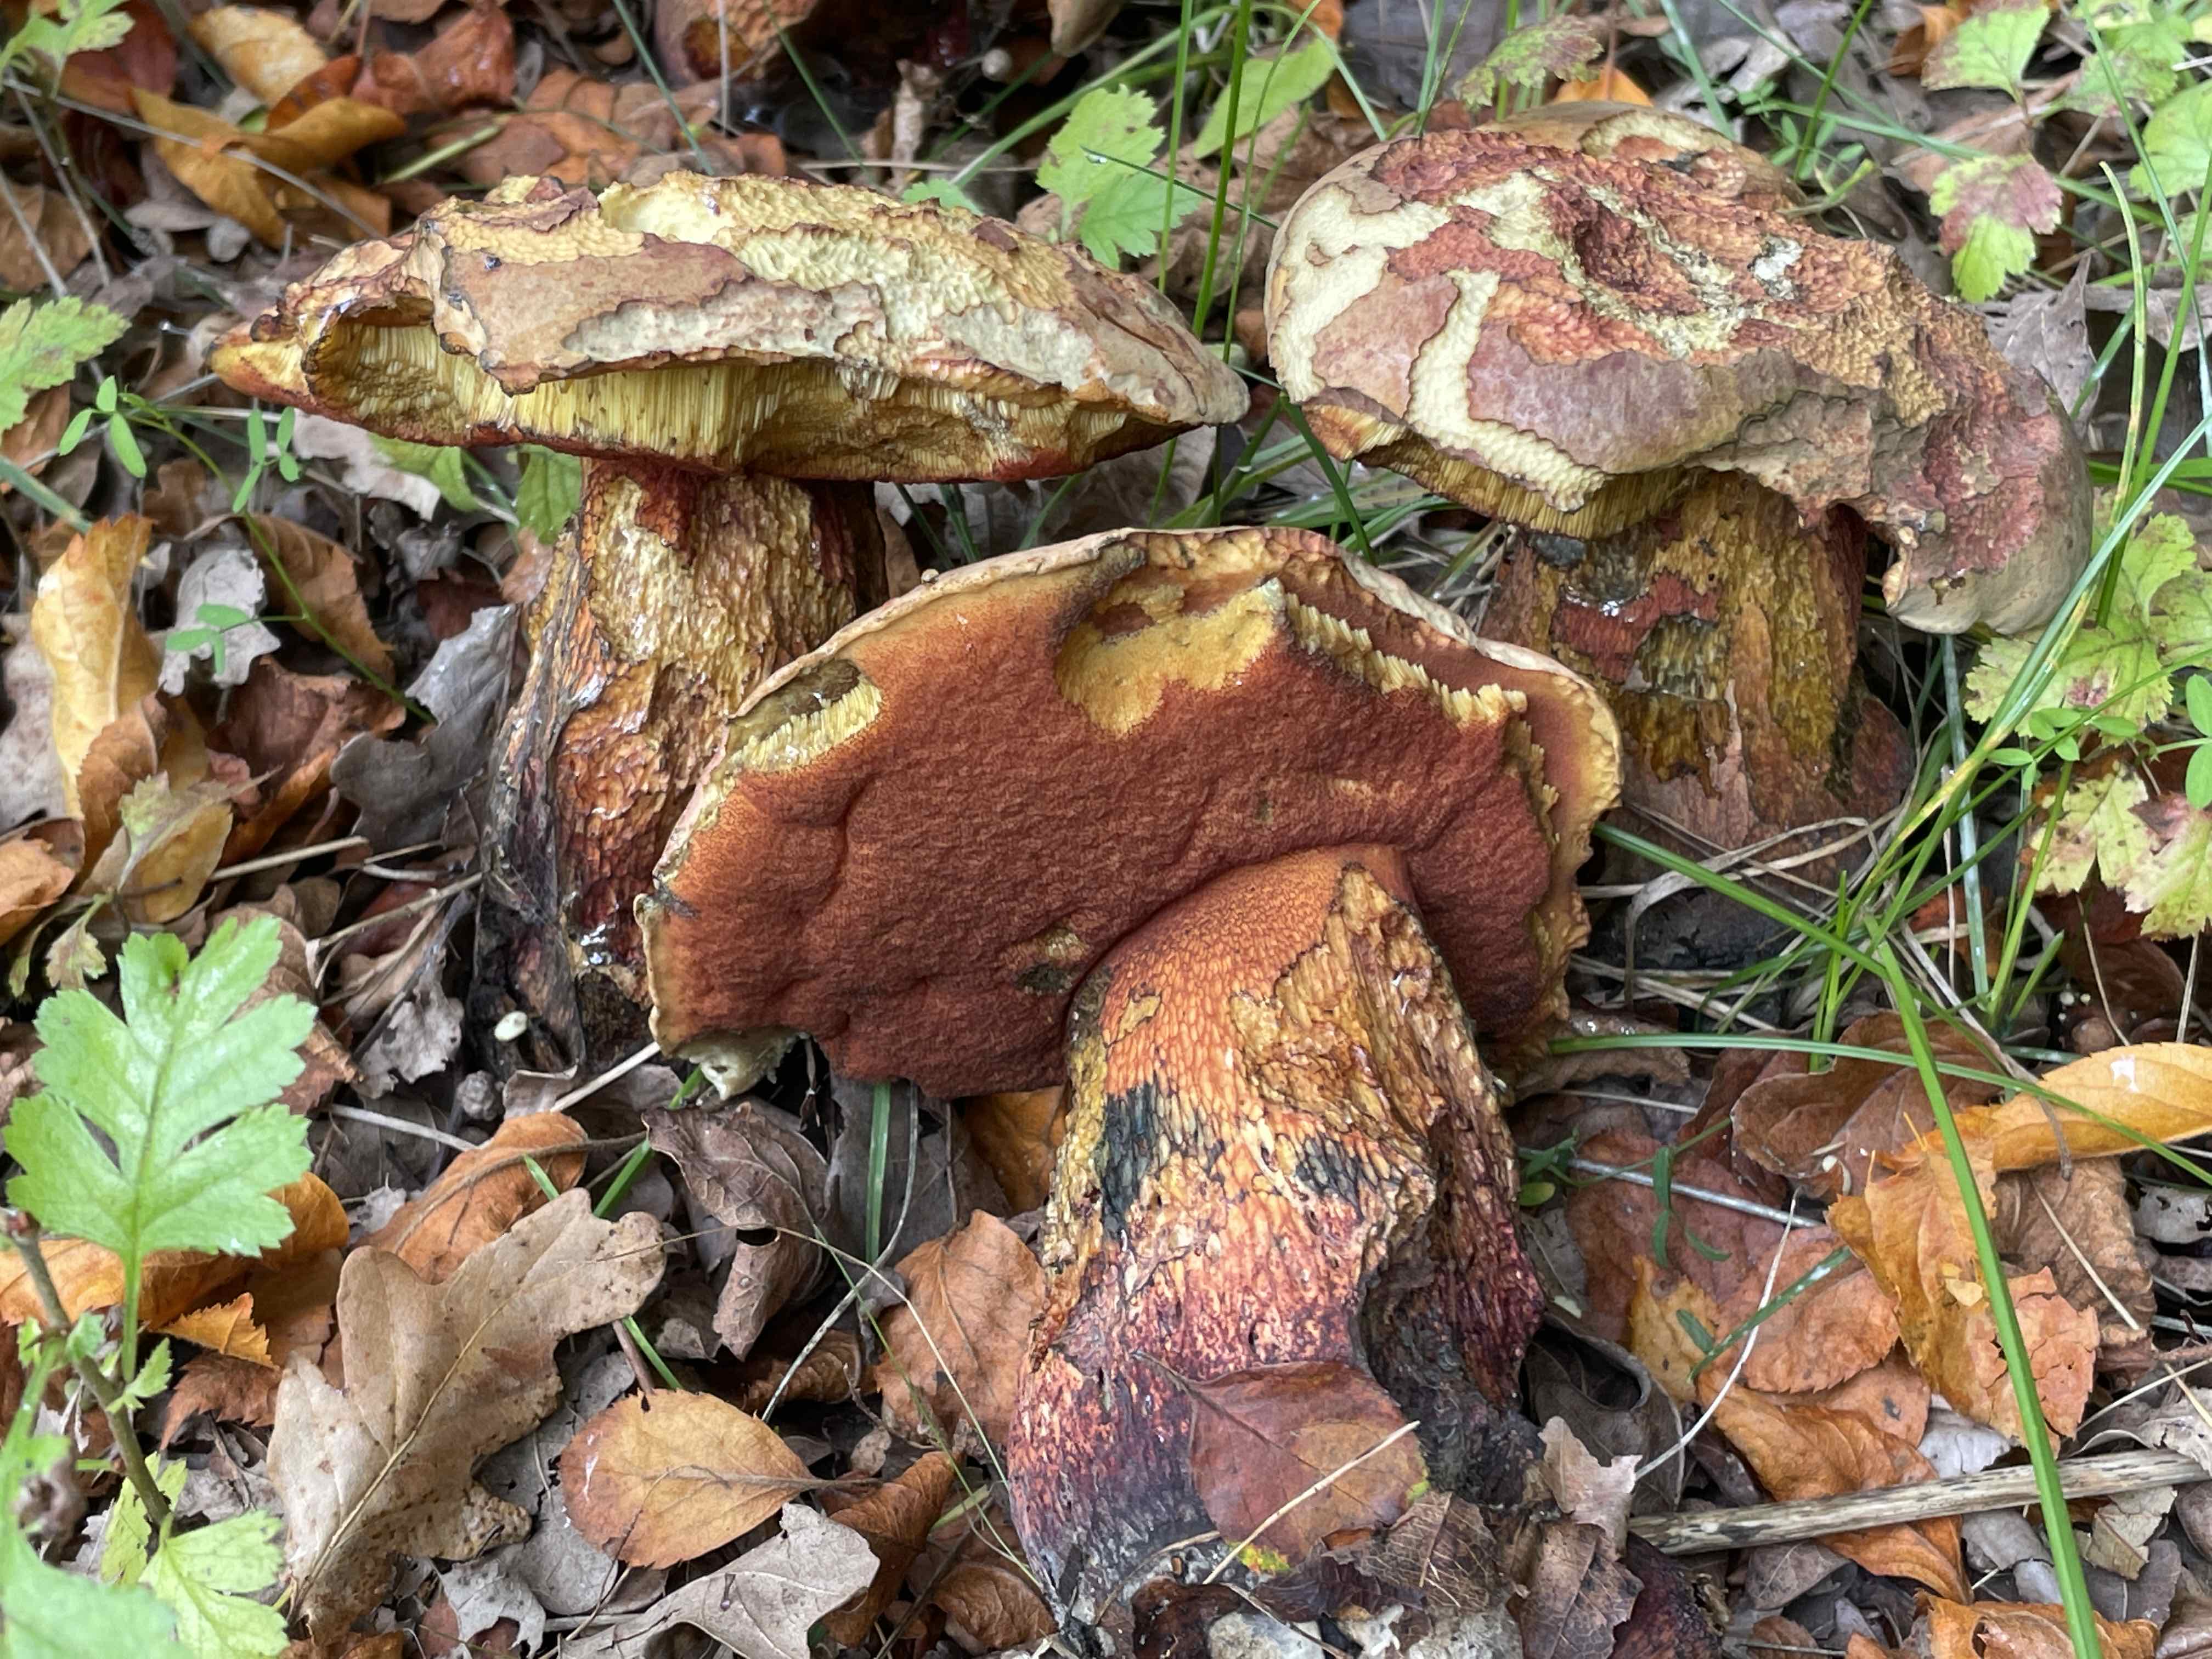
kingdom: Fungi
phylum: Basidiomycota
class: Agaricomycetes
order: Boletales
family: Boletaceae
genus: Suillellus
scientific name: Suillellus luridus
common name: netstokket indigorørhat
